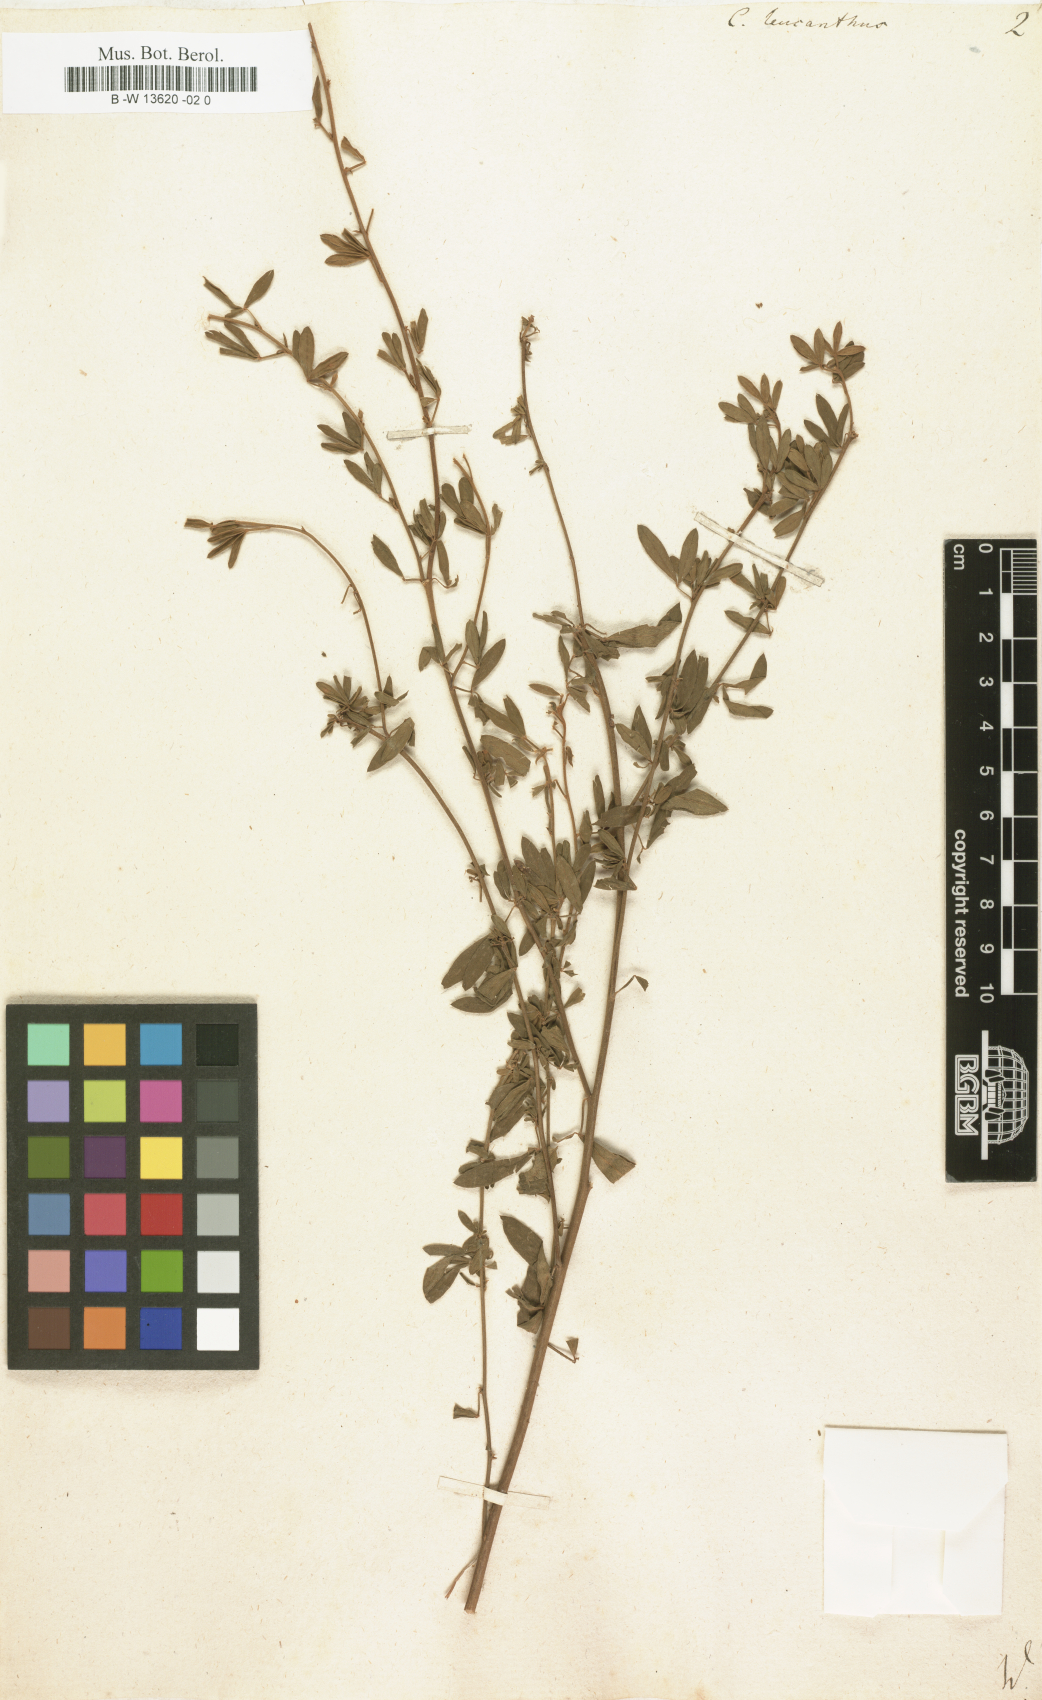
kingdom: Plantae
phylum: Tracheophyta
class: Magnoliopsida
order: Fabales
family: Fabaceae
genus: Chamaecytisus
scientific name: Chamaecytisus albus
